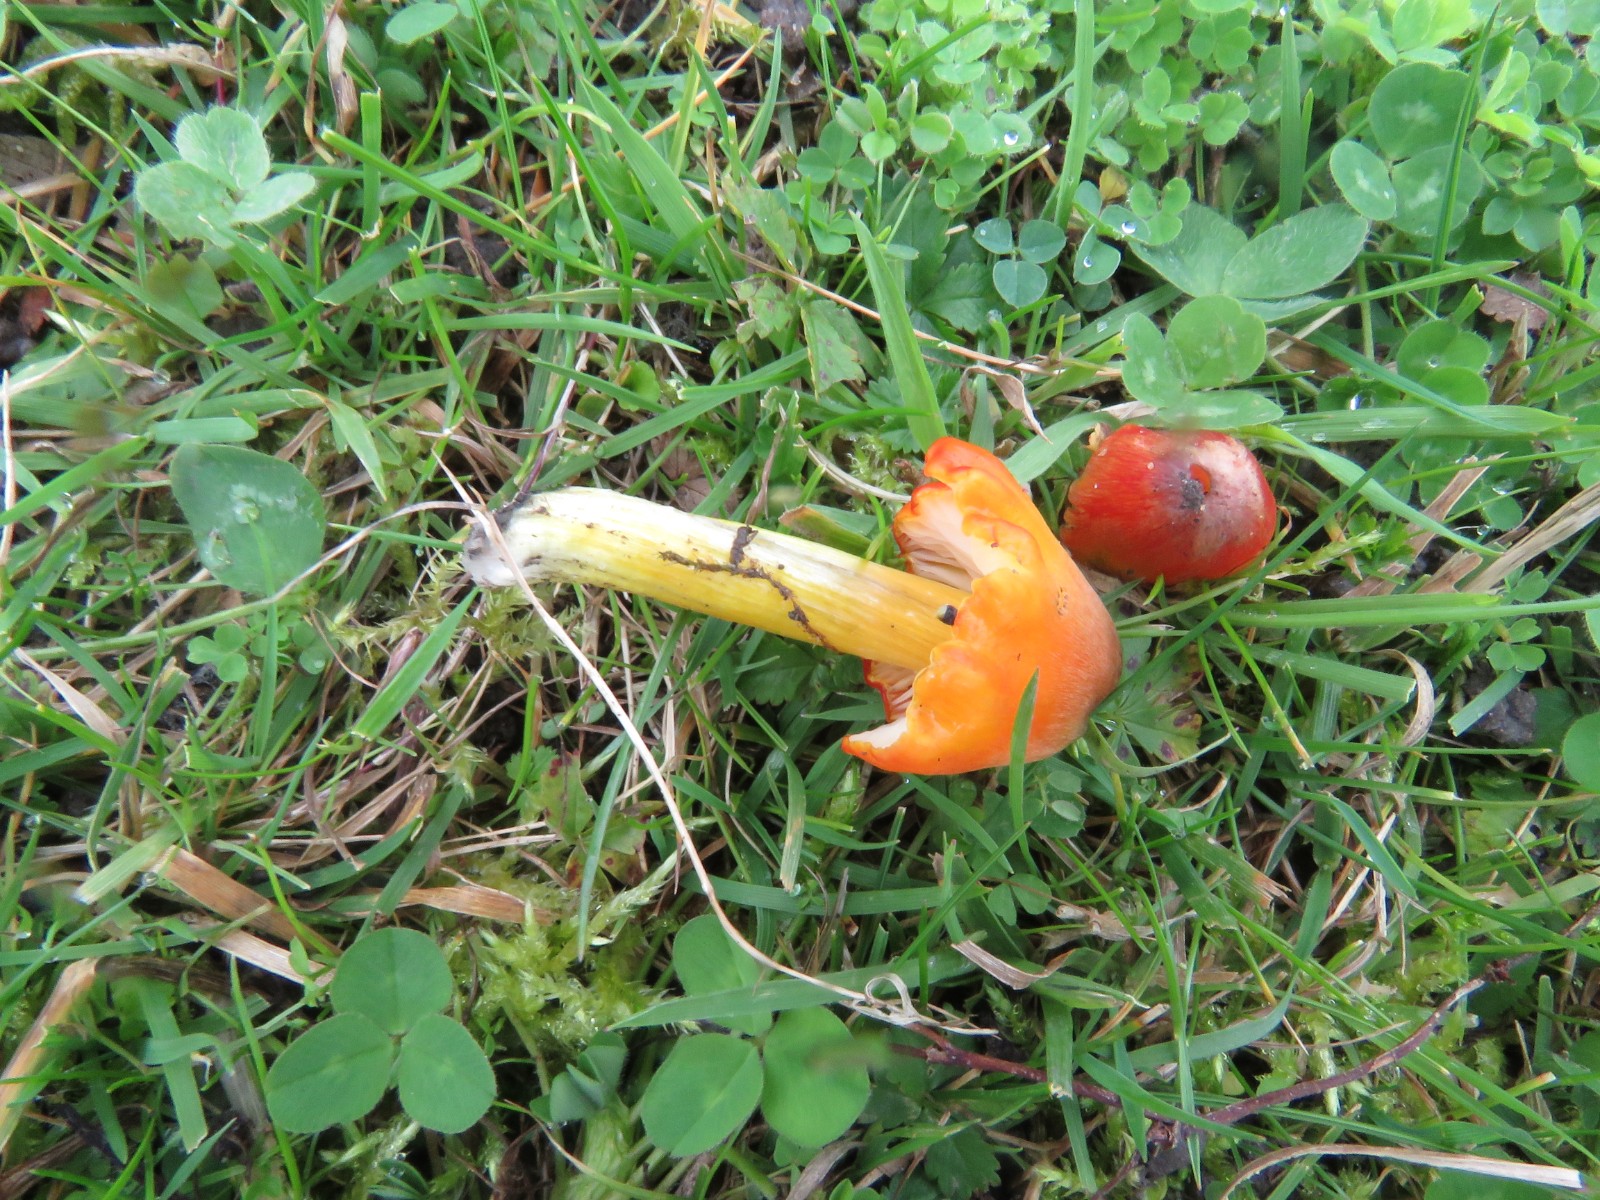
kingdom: Fungi
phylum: Basidiomycota
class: Agaricomycetes
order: Agaricales
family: Hygrophoraceae
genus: Hygrocybe
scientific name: Hygrocybe conica
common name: kegle-vokshat
